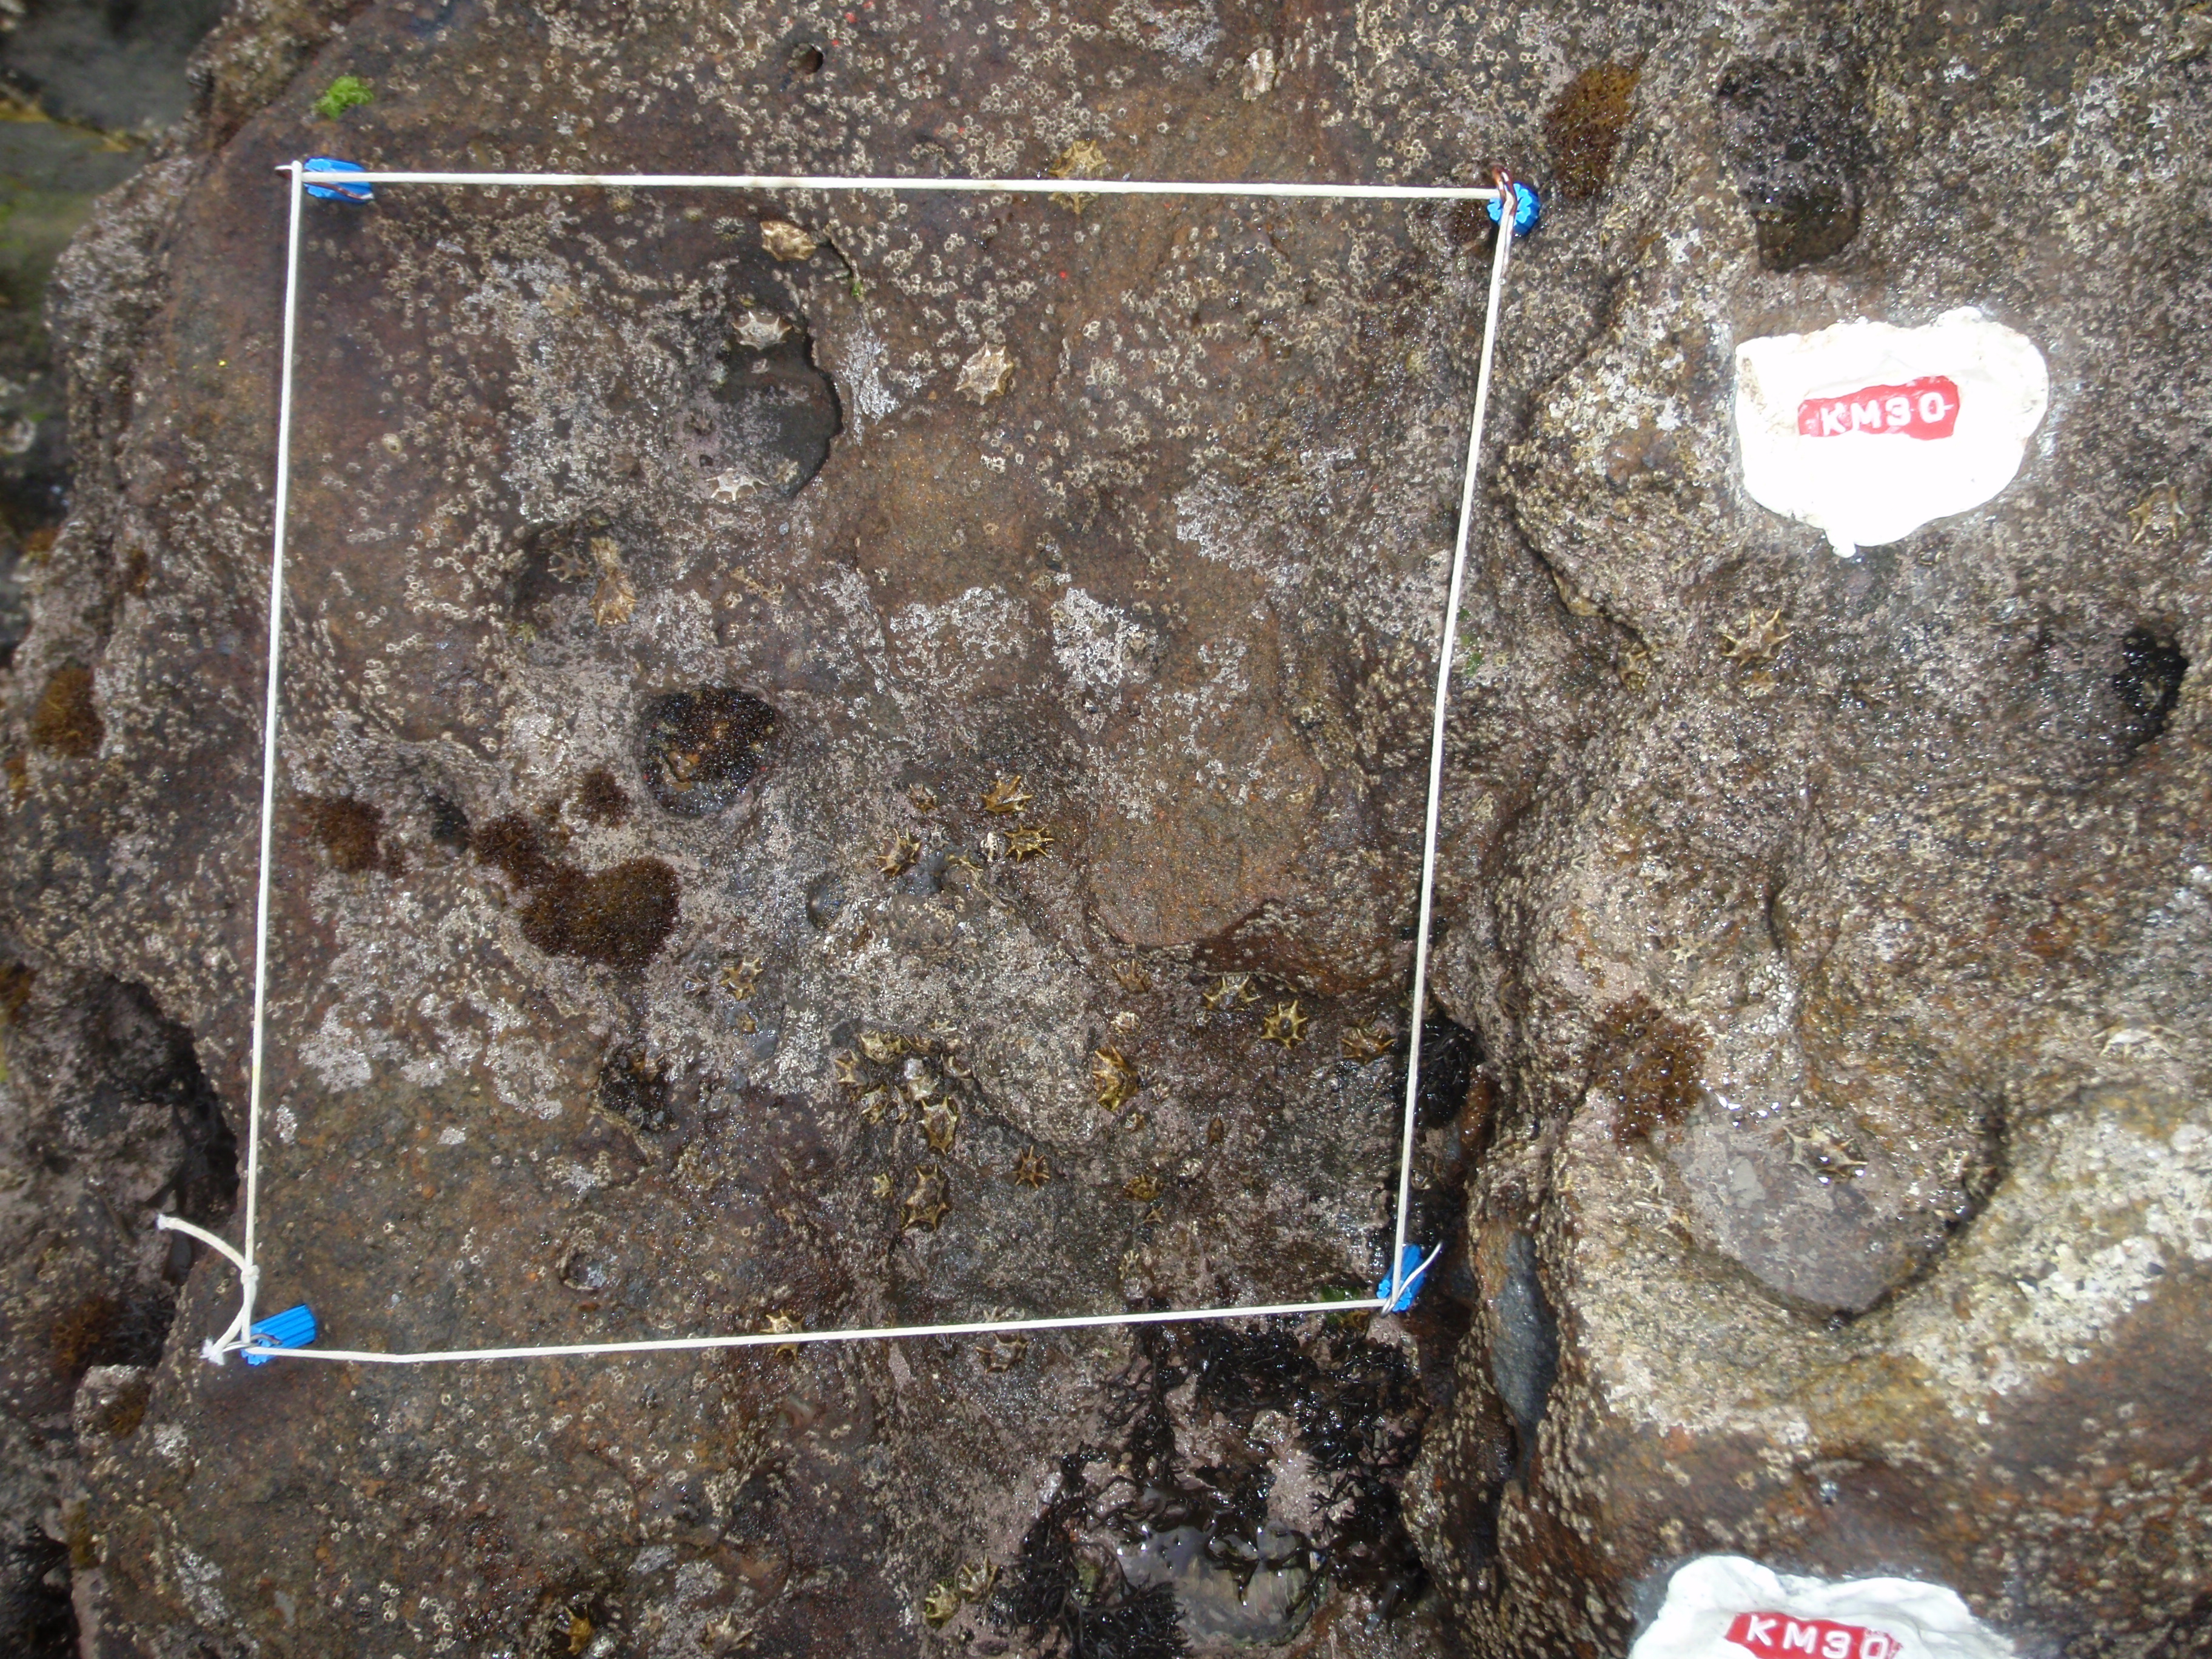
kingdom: Animalia
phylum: Arthropoda
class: Maxillopoda
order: Sessilia
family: Chthamalidae
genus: Chthamalus
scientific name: Chthamalus challengeri
